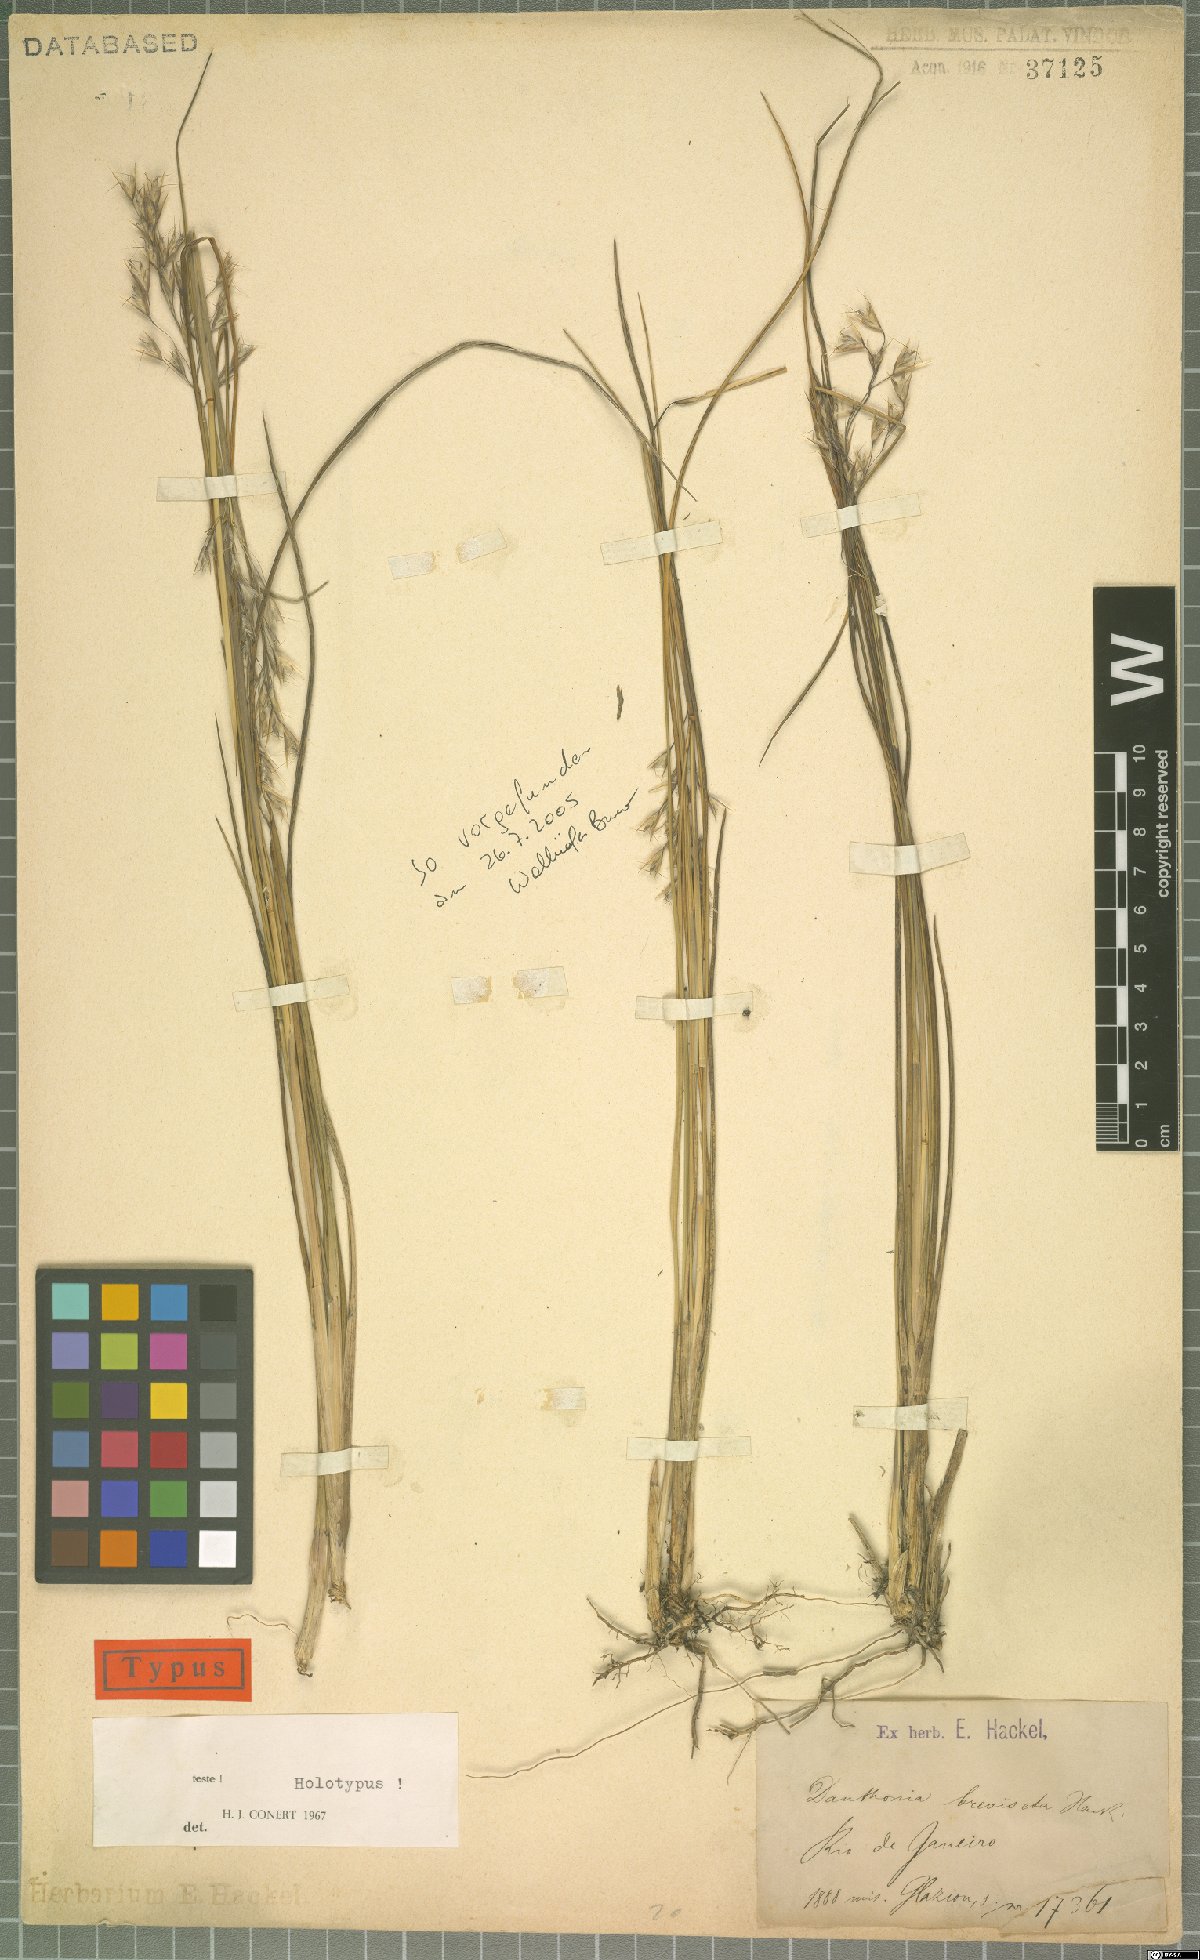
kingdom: Plantae
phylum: Tracheophyta
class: Liliopsida
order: Poales
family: Poaceae
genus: Danthonia
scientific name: Danthonia breviseta
